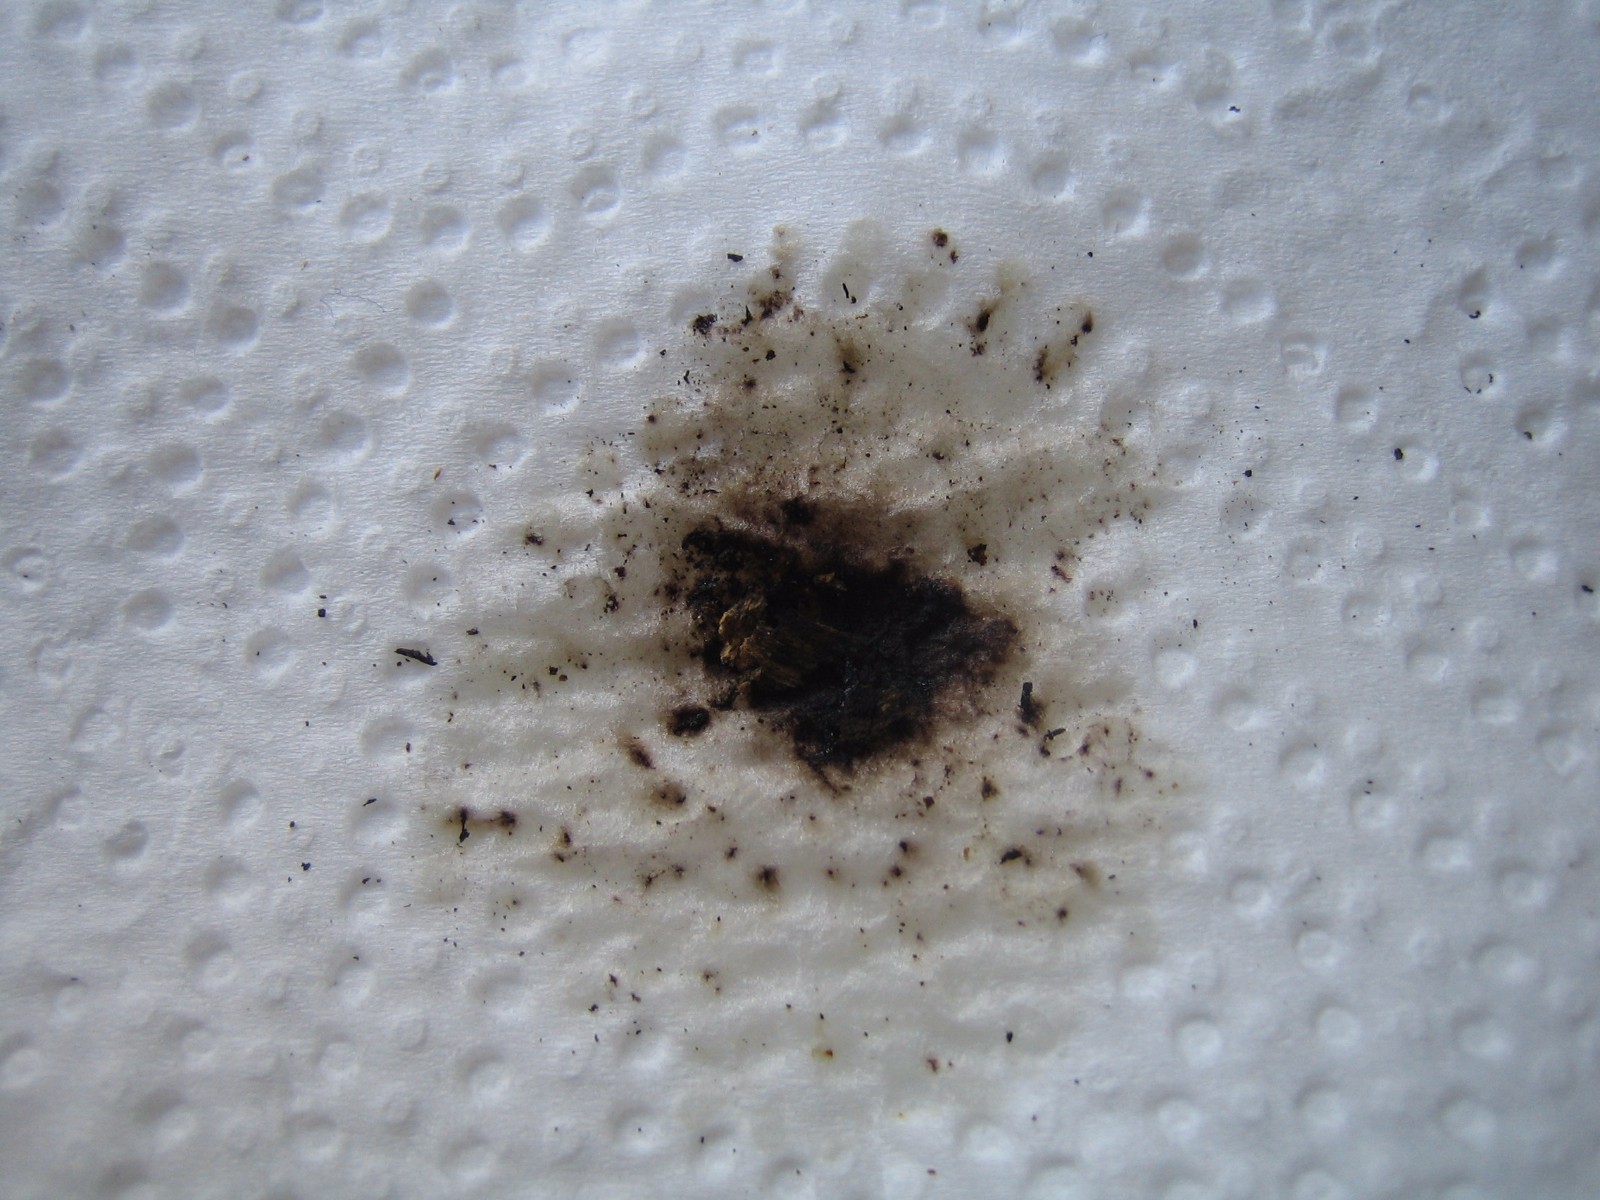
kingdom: Fungi
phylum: Ascomycota
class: Sordariomycetes
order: Xylariales
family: Hypoxylaceae
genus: Hypoxylon
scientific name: Hypoxylon macrocarpum
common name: skorpe-kulbær
